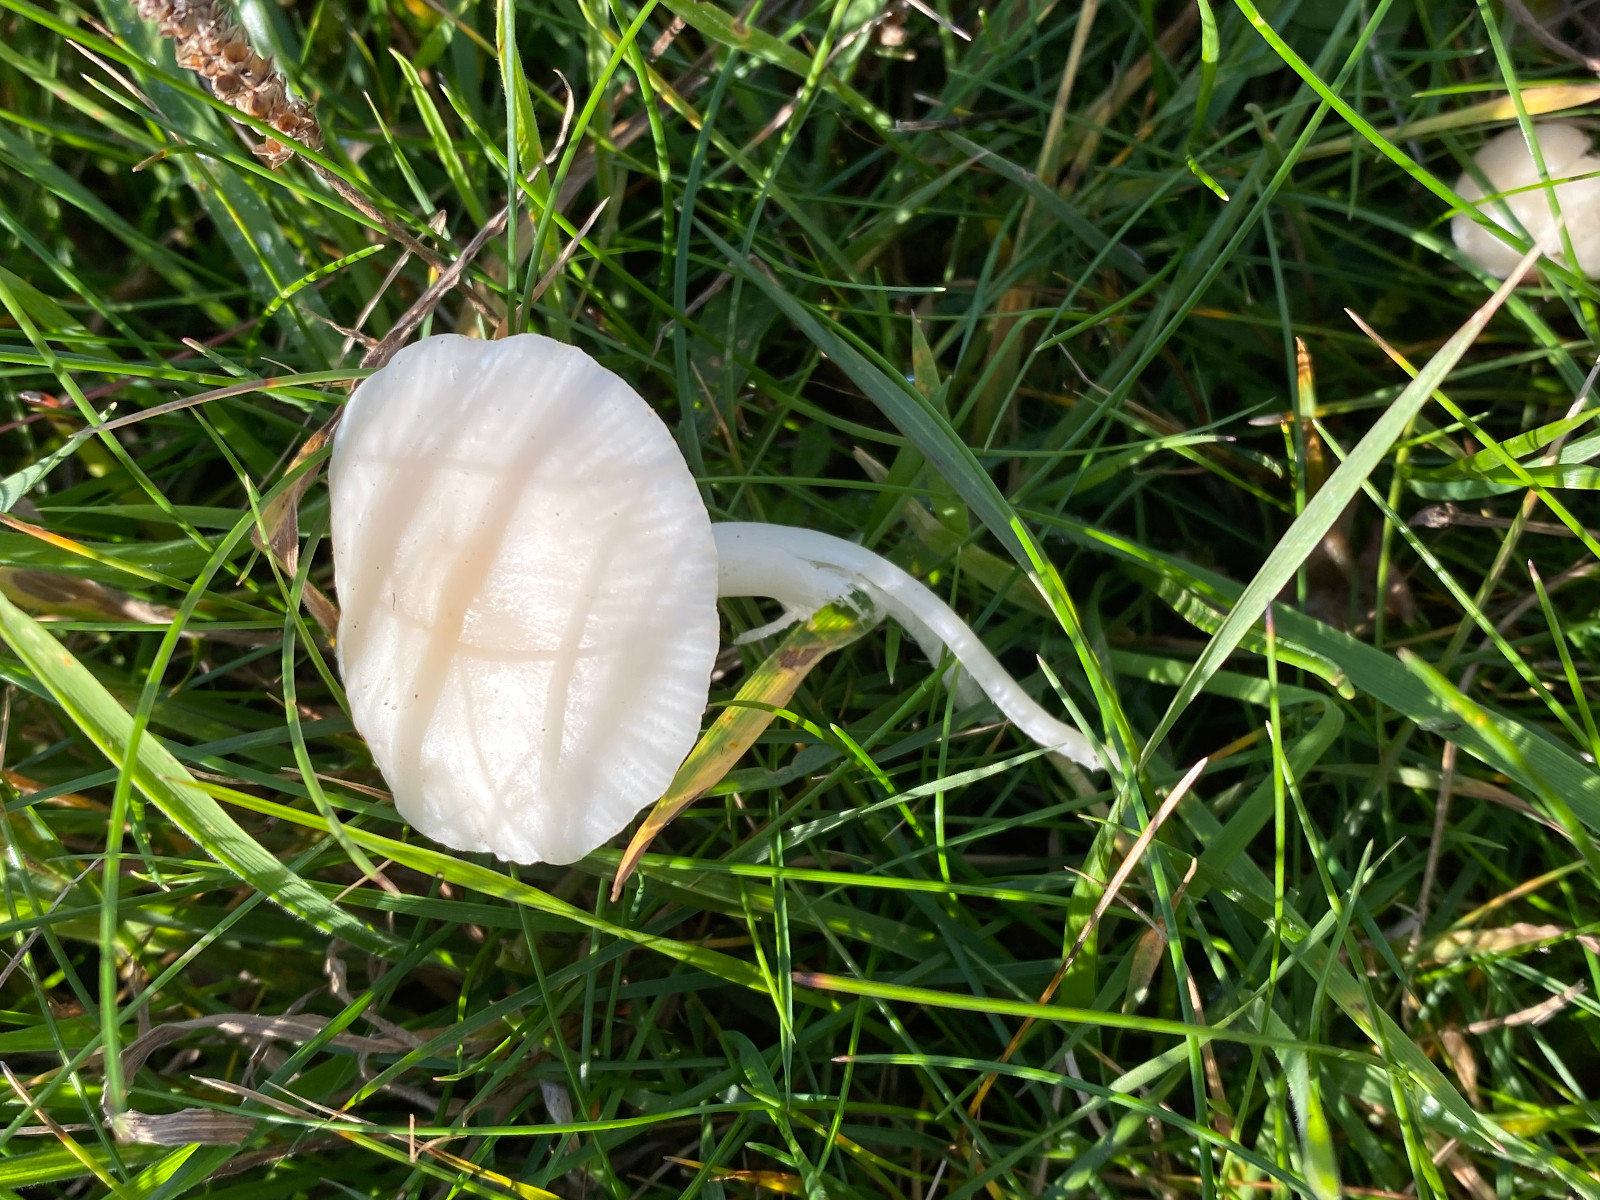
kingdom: Fungi
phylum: Basidiomycota
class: Agaricomycetes
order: Agaricales
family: Hygrophoraceae
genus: Cuphophyllus
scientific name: Cuphophyllus virgineus
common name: snehvid vokshat
